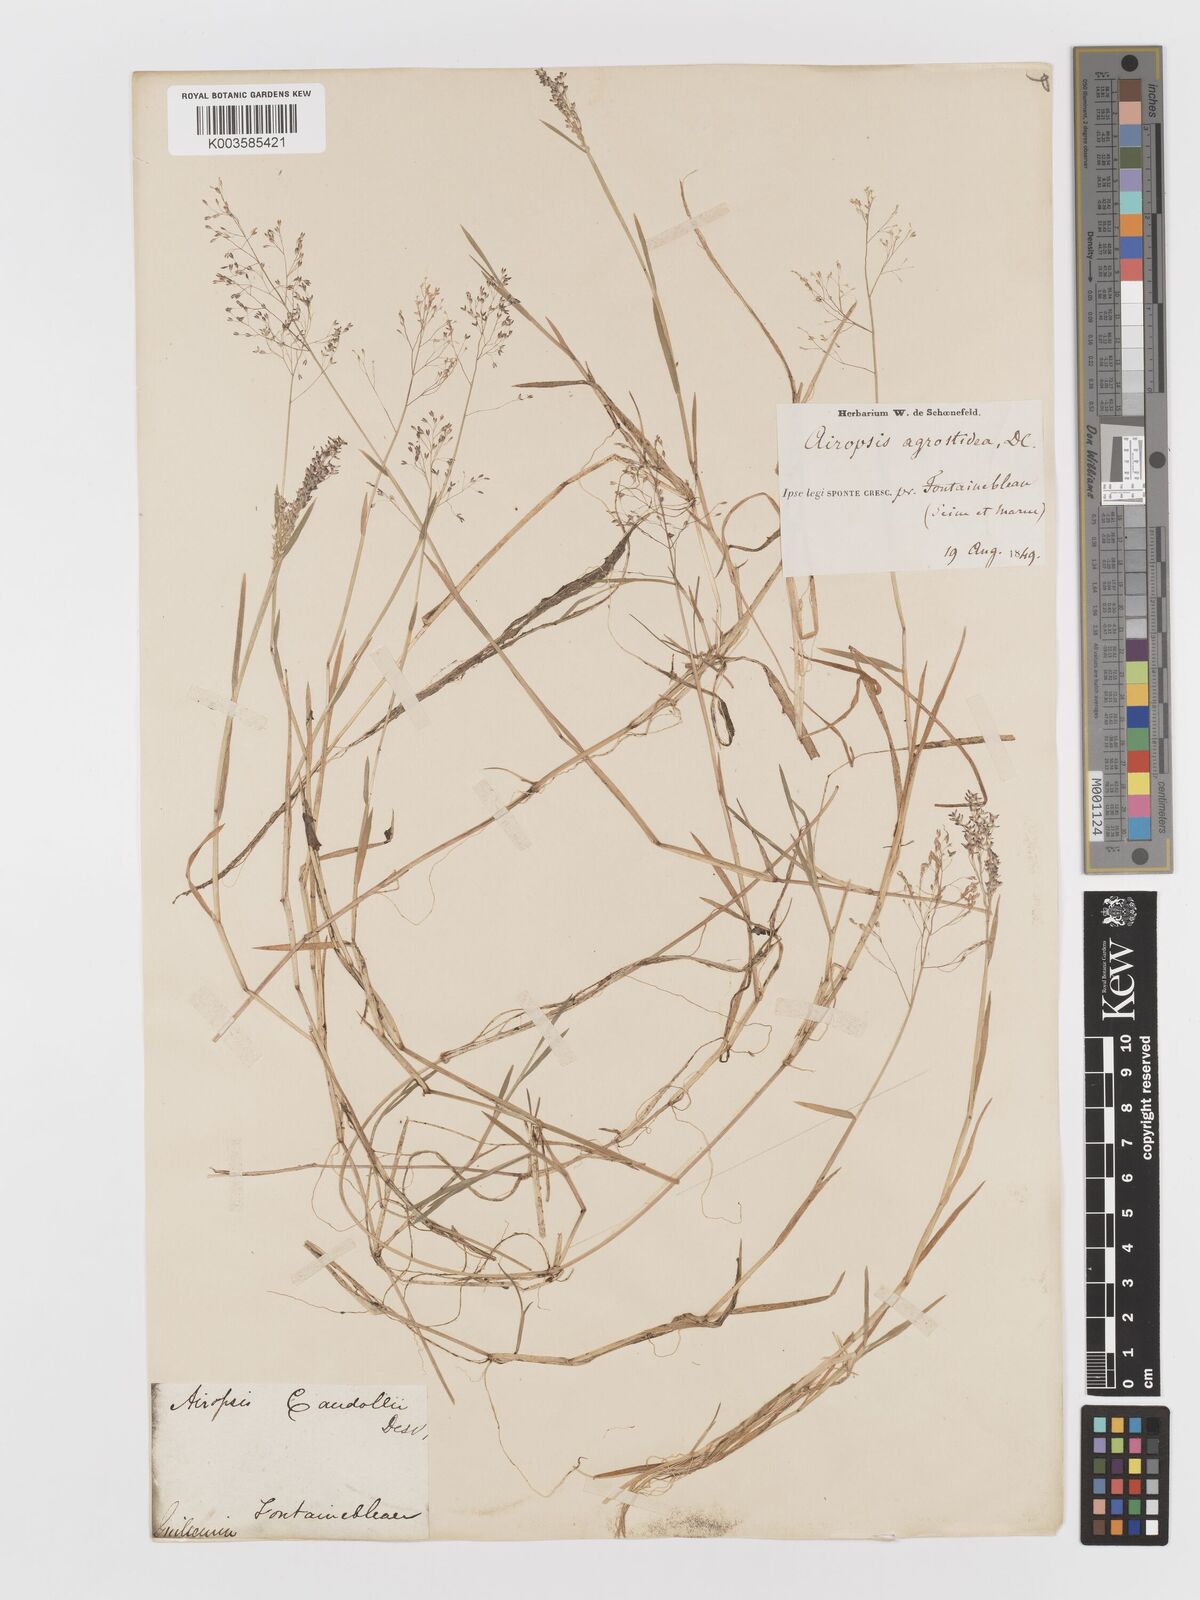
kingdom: Plantae
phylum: Tracheophyta
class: Liliopsida
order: Poales
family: Poaceae
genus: Antinoria
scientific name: Antinoria agrostidea
